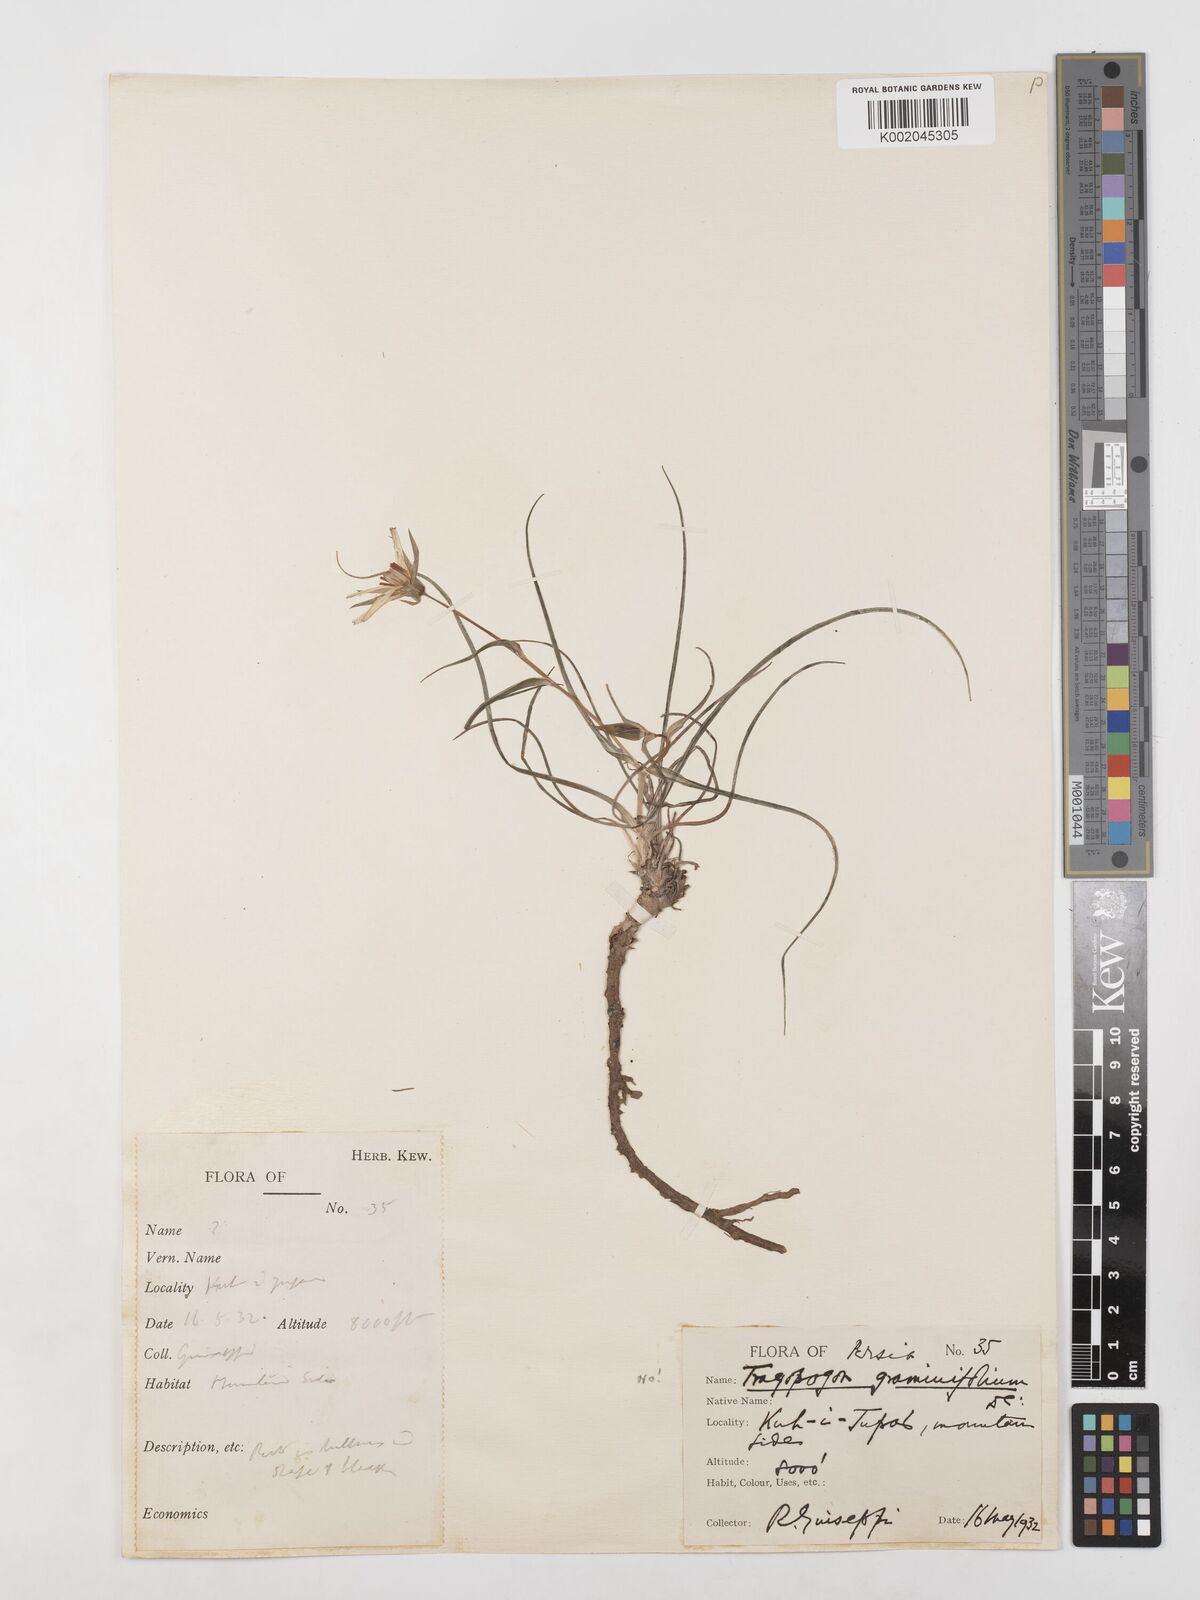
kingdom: Plantae
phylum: Tracheophyta
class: Magnoliopsida
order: Asterales
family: Asteraceae
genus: Tragopogon
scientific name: Tragopogon collinus
